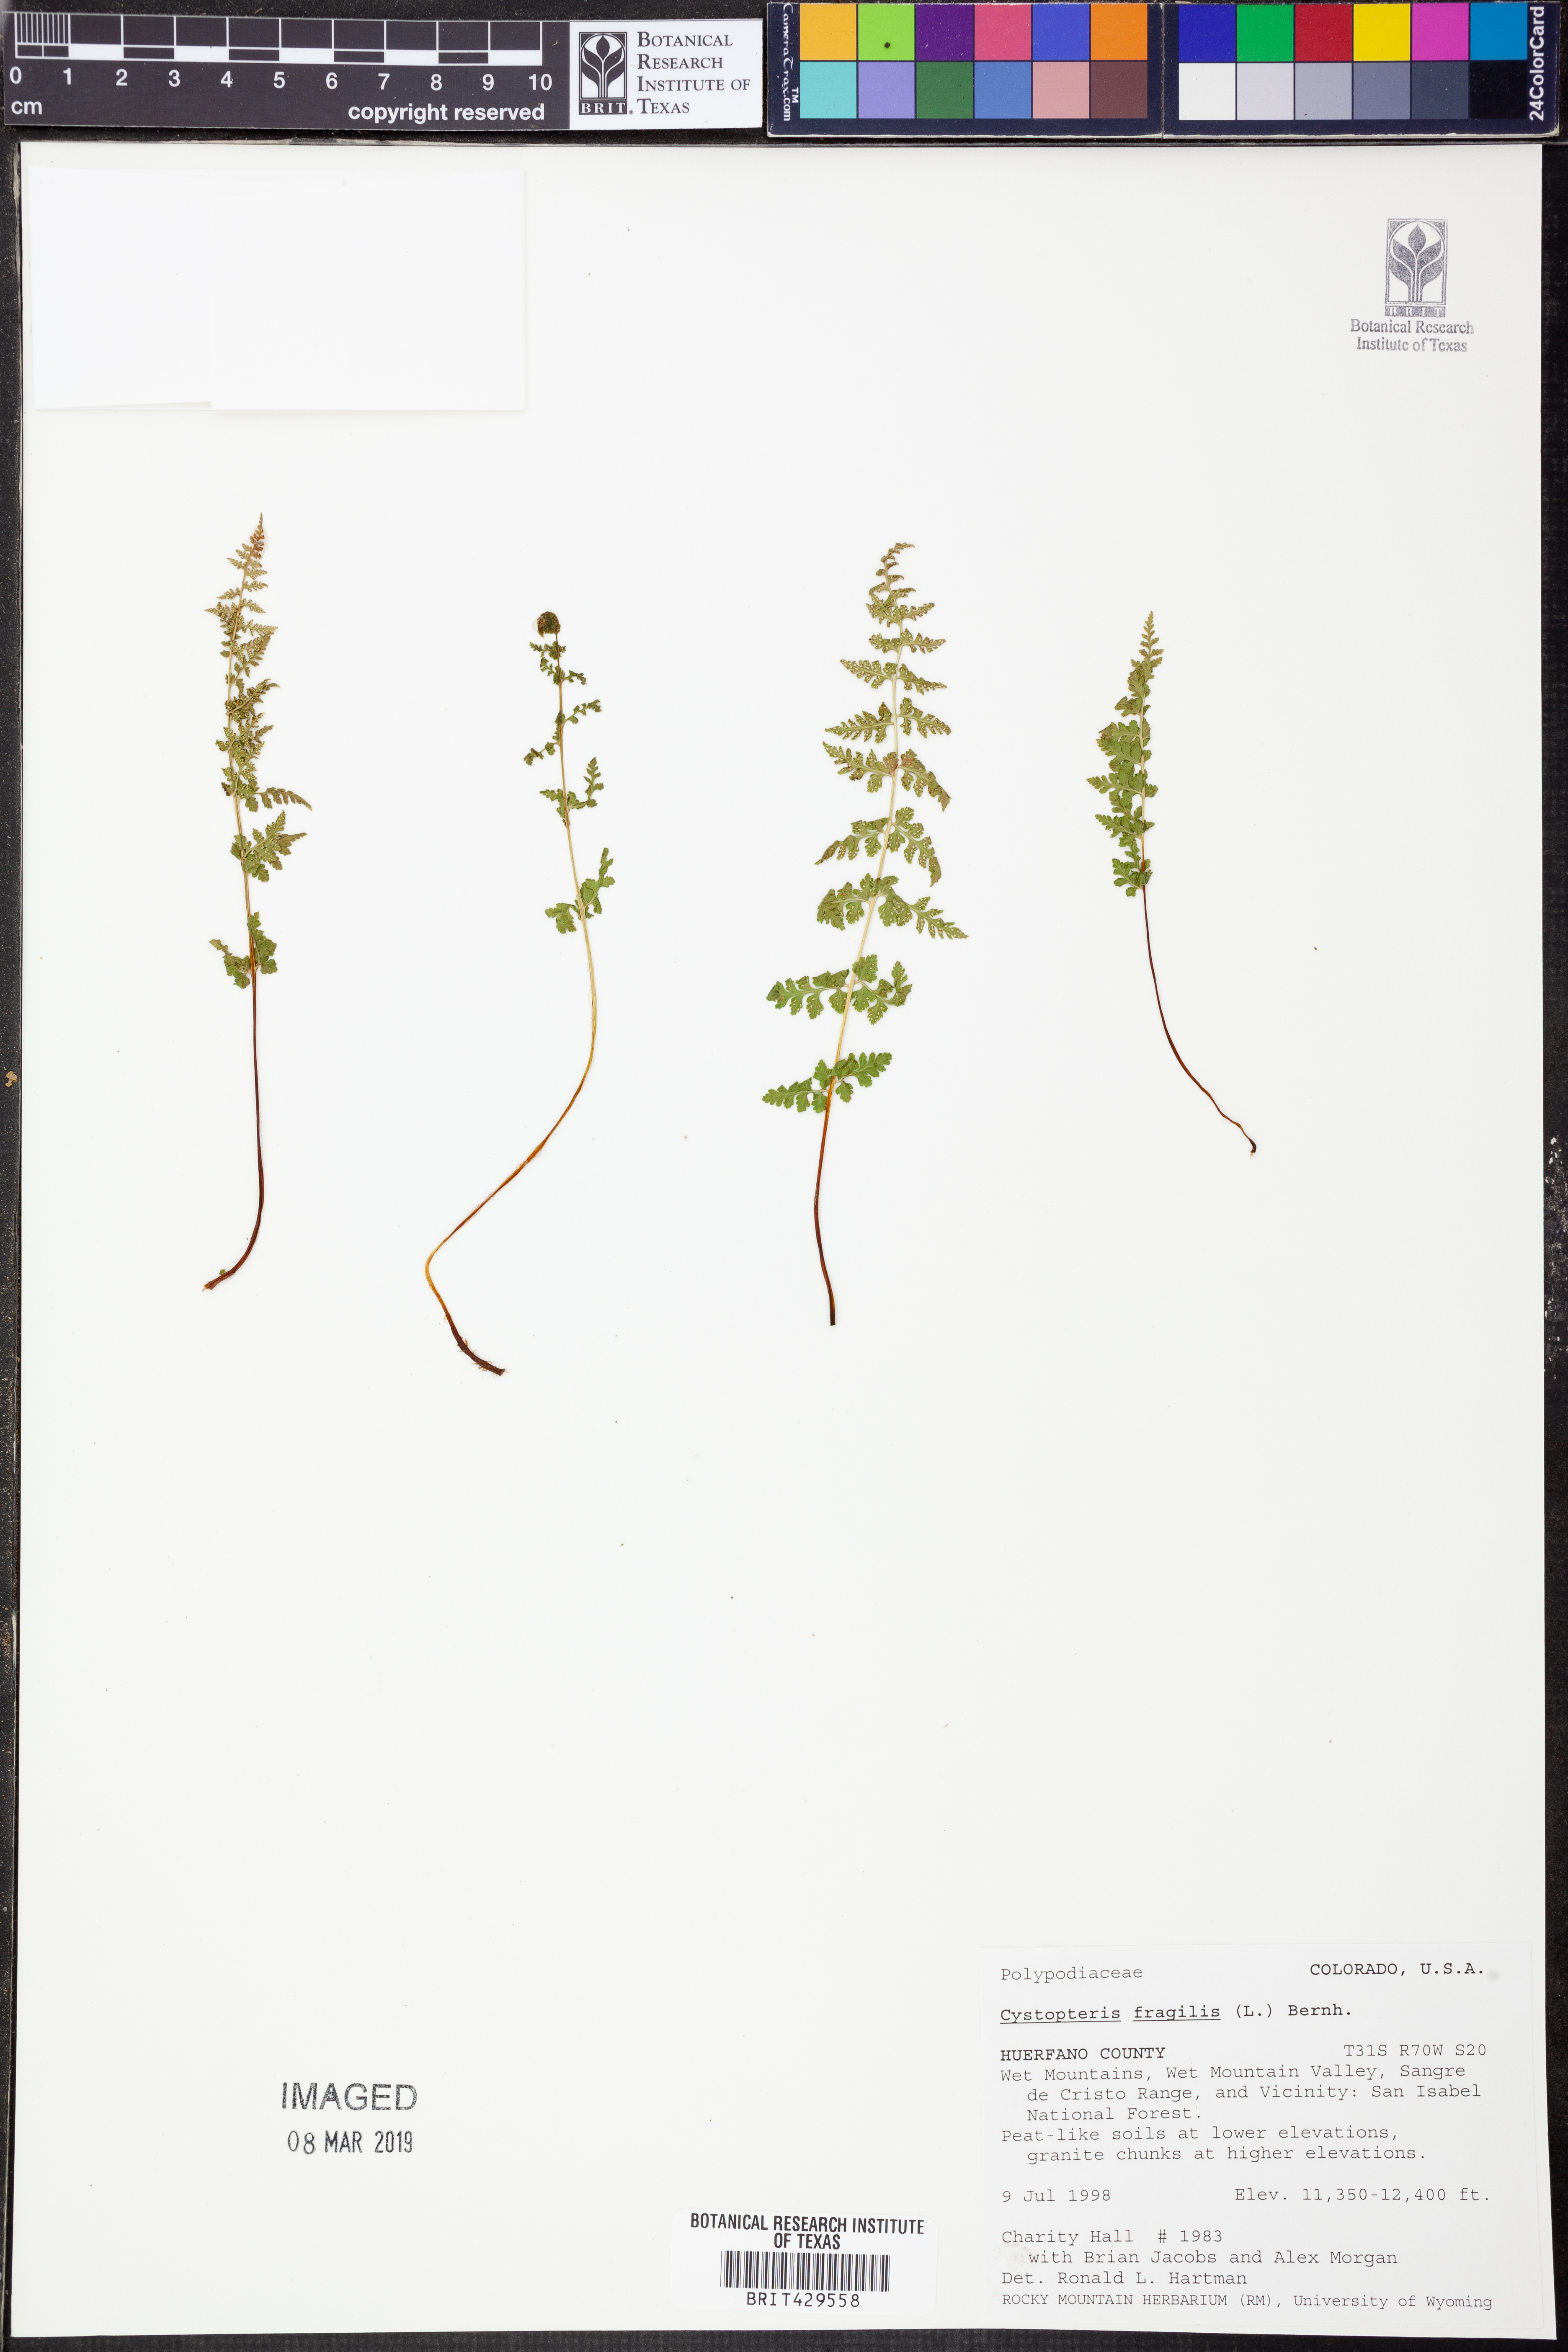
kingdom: Plantae
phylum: Tracheophyta
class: Polypodiopsida
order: Polypodiales
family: Cystopteridaceae
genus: Cystopteris
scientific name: Cystopteris fragilis
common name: Brittle bladder fern
